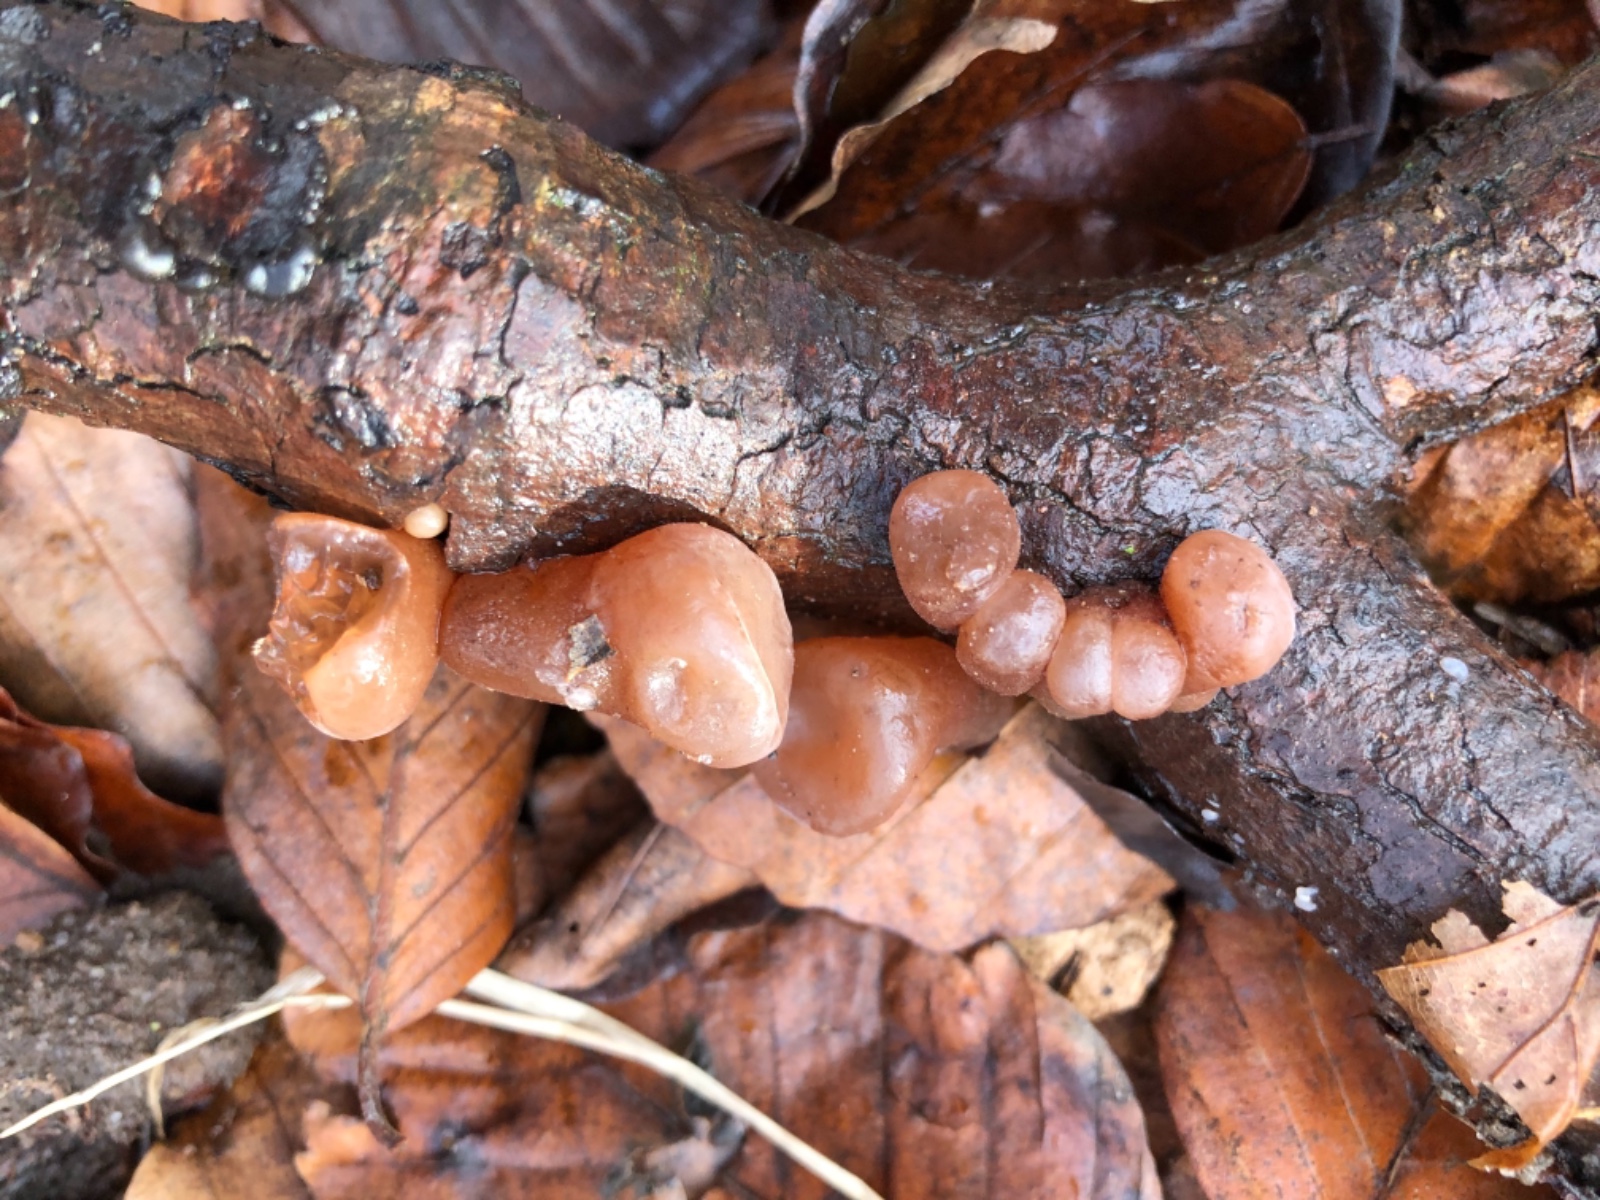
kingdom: Fungi
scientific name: Fungi
